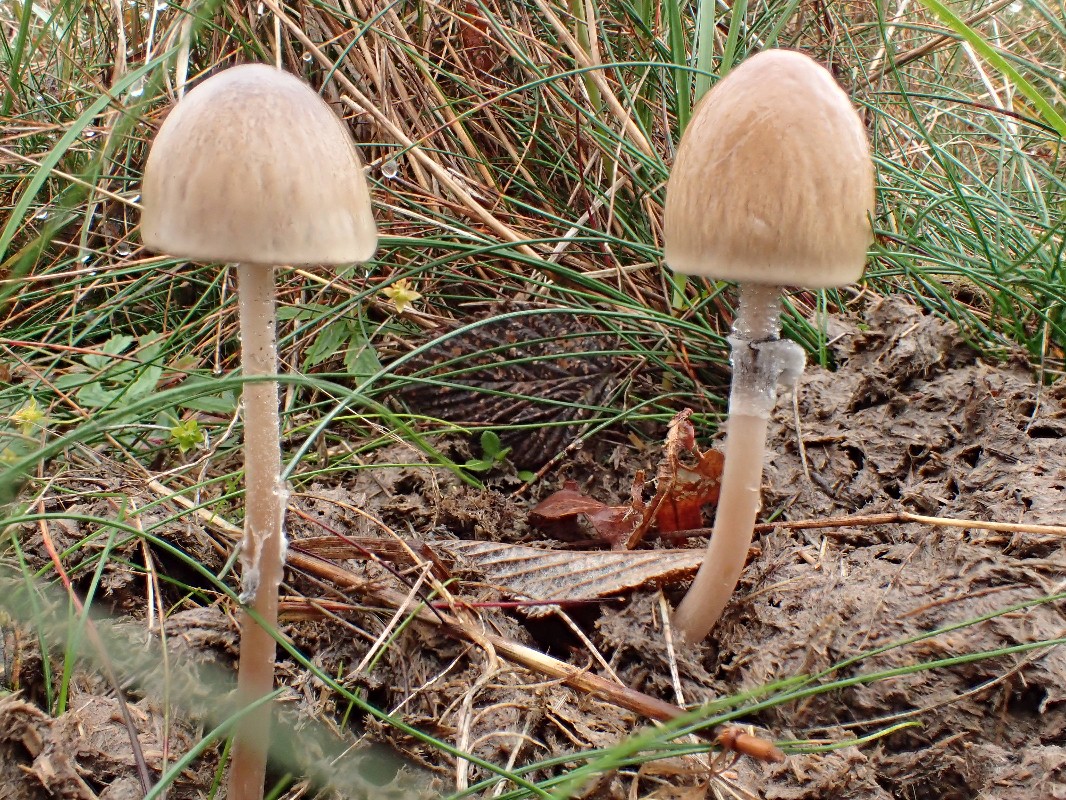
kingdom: Fungi
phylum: Basidiomycota
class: Agaricomycetes
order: Agaricales
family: Bolbitiaceae
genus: Panaeolus
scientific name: Panaeolus semiovatus
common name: ring-glanshat
